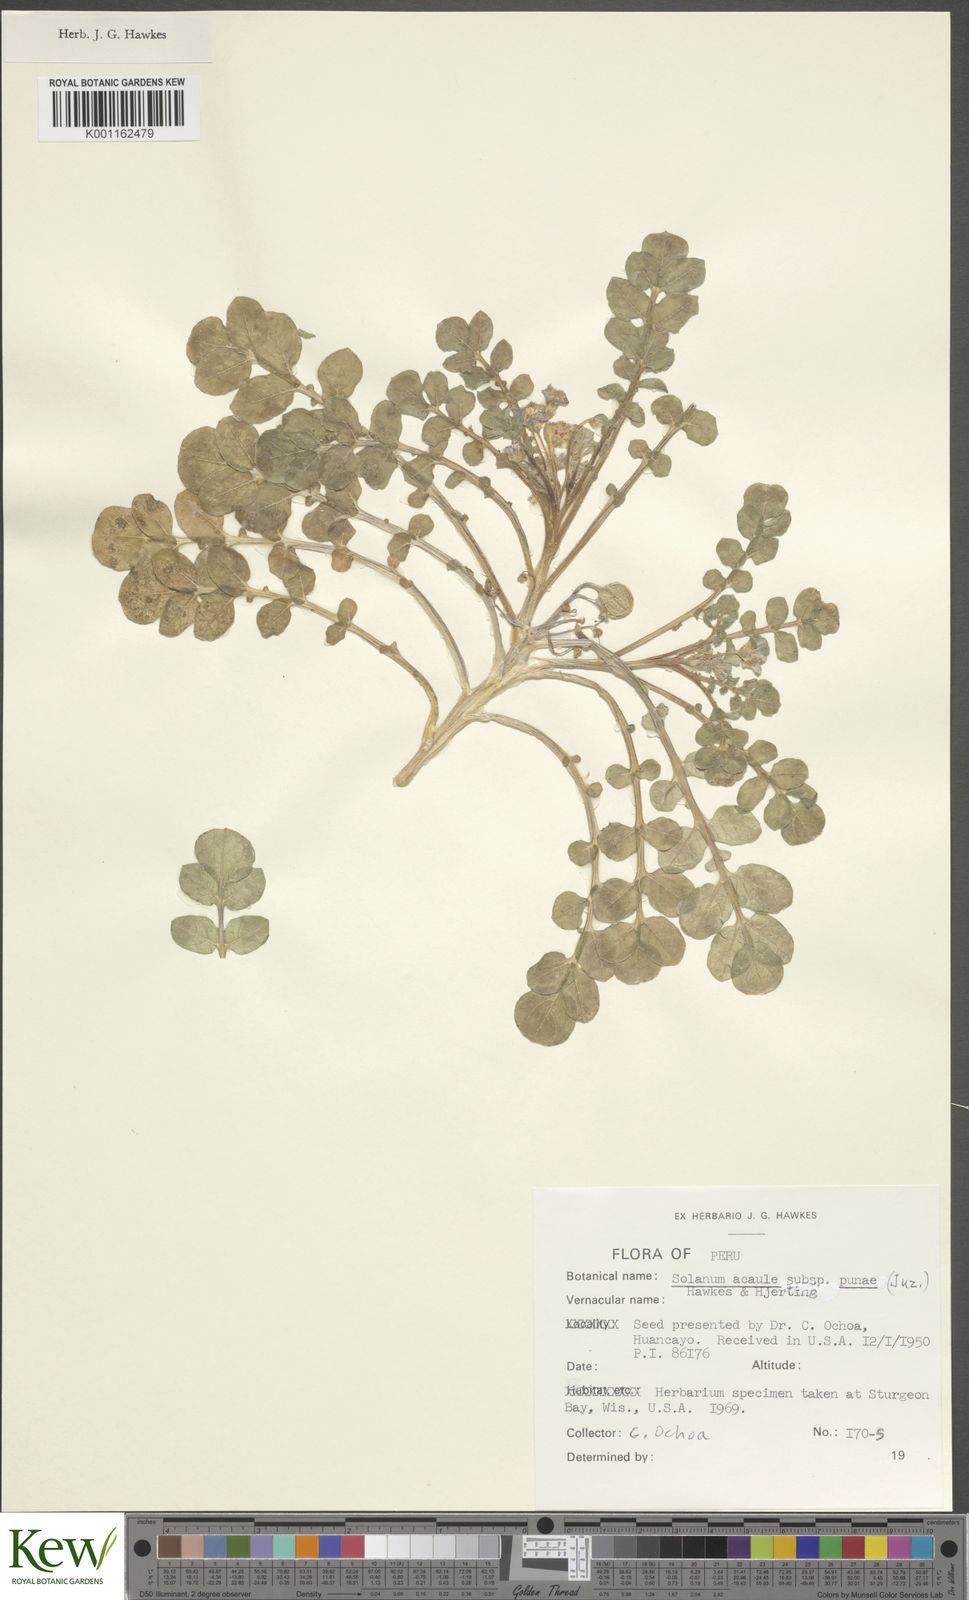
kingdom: Plantae
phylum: Tracheophyta
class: Magnoliopsida
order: Solanales
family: Solanaceae
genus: Solanum
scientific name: Solanum acaule
